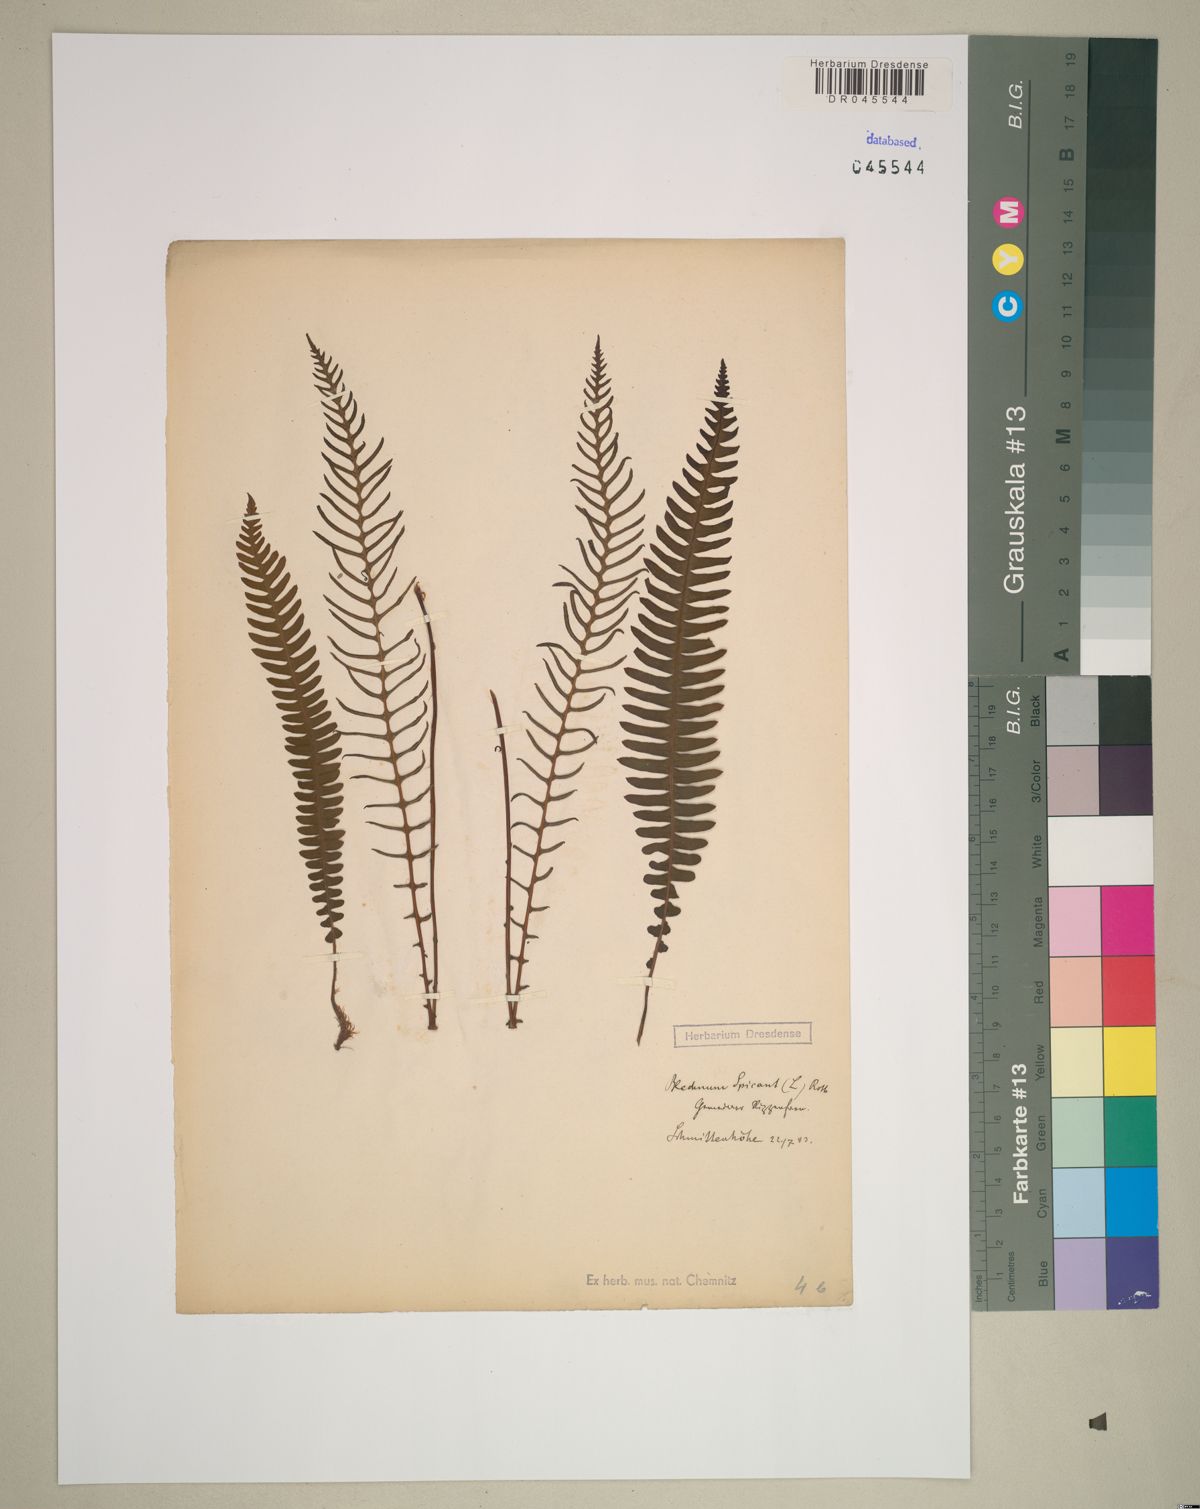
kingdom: Plantae
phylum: Tracheophyta
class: Polypodiopsida
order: Polypodiales
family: Blechnaceae
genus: Struthiopteris
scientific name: Struthiopteris spicant
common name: Deer fern
